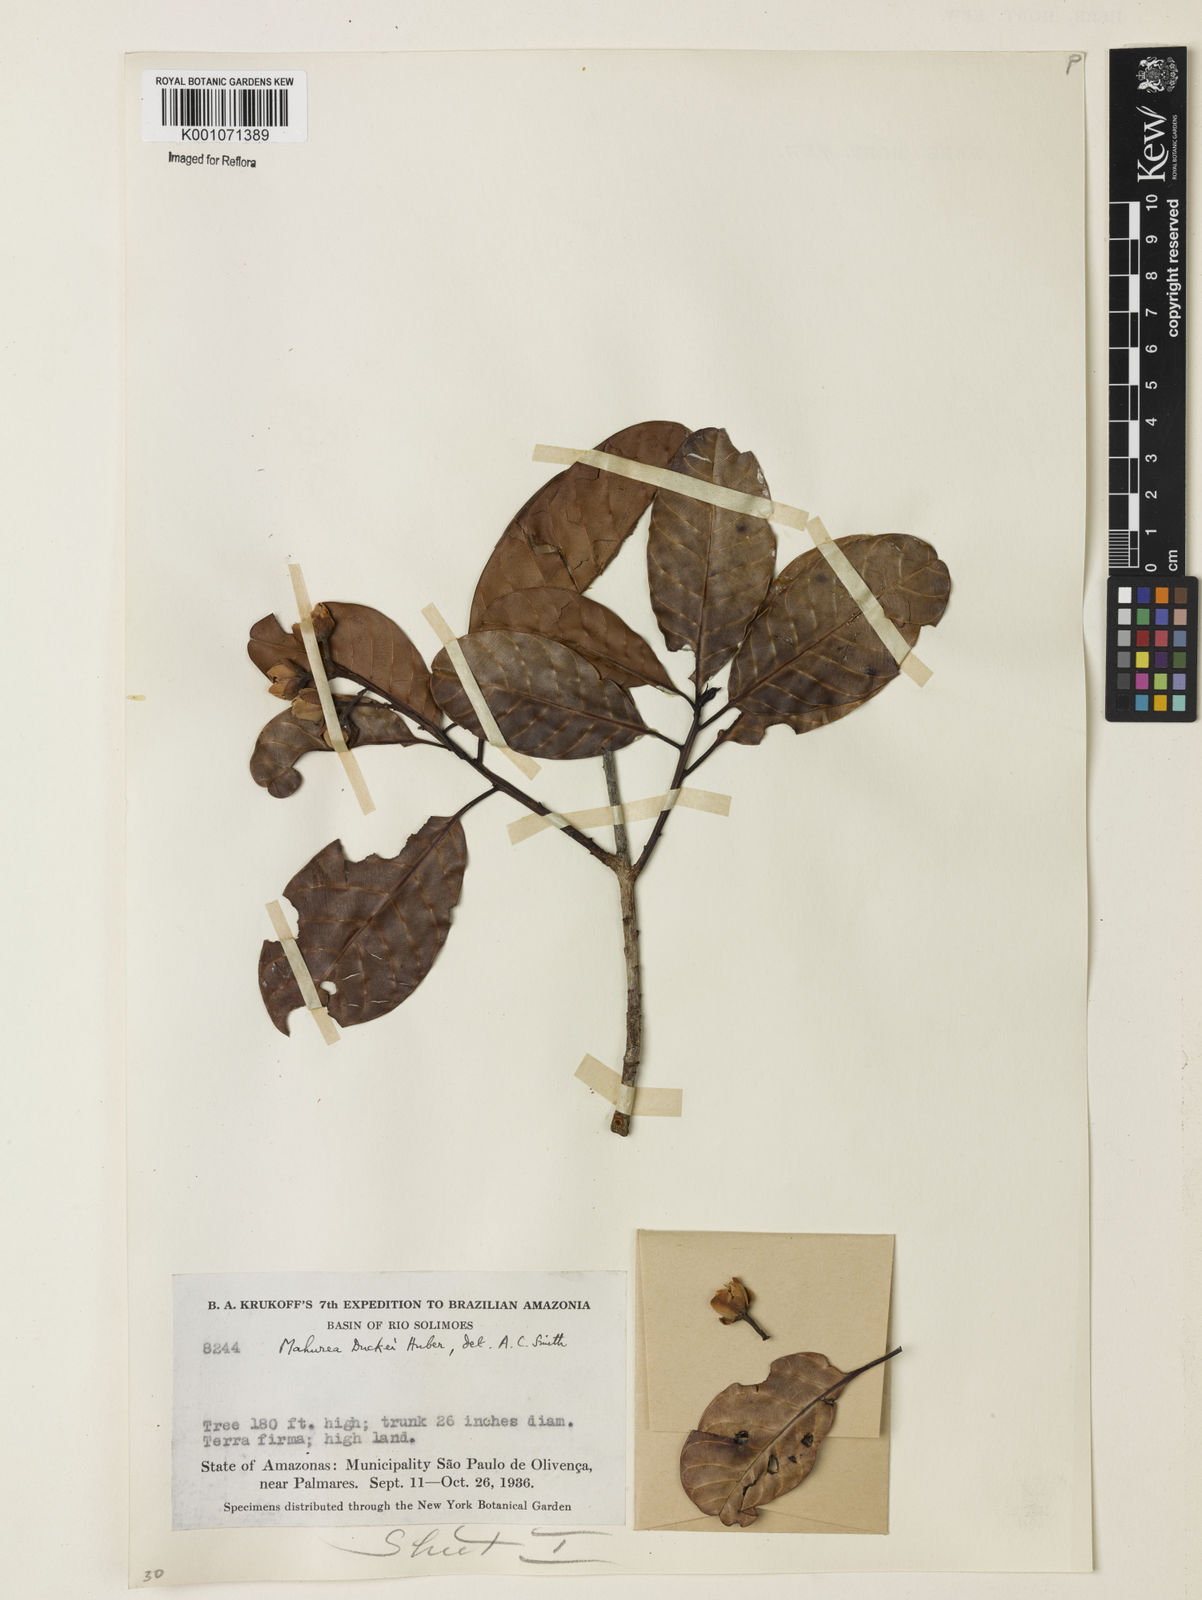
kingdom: Plantae
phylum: Tracheophyta
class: Magnoliopsida
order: Malpighiales
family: Calophyllaceae
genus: Mahurea
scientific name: Mahurea exstipulata
